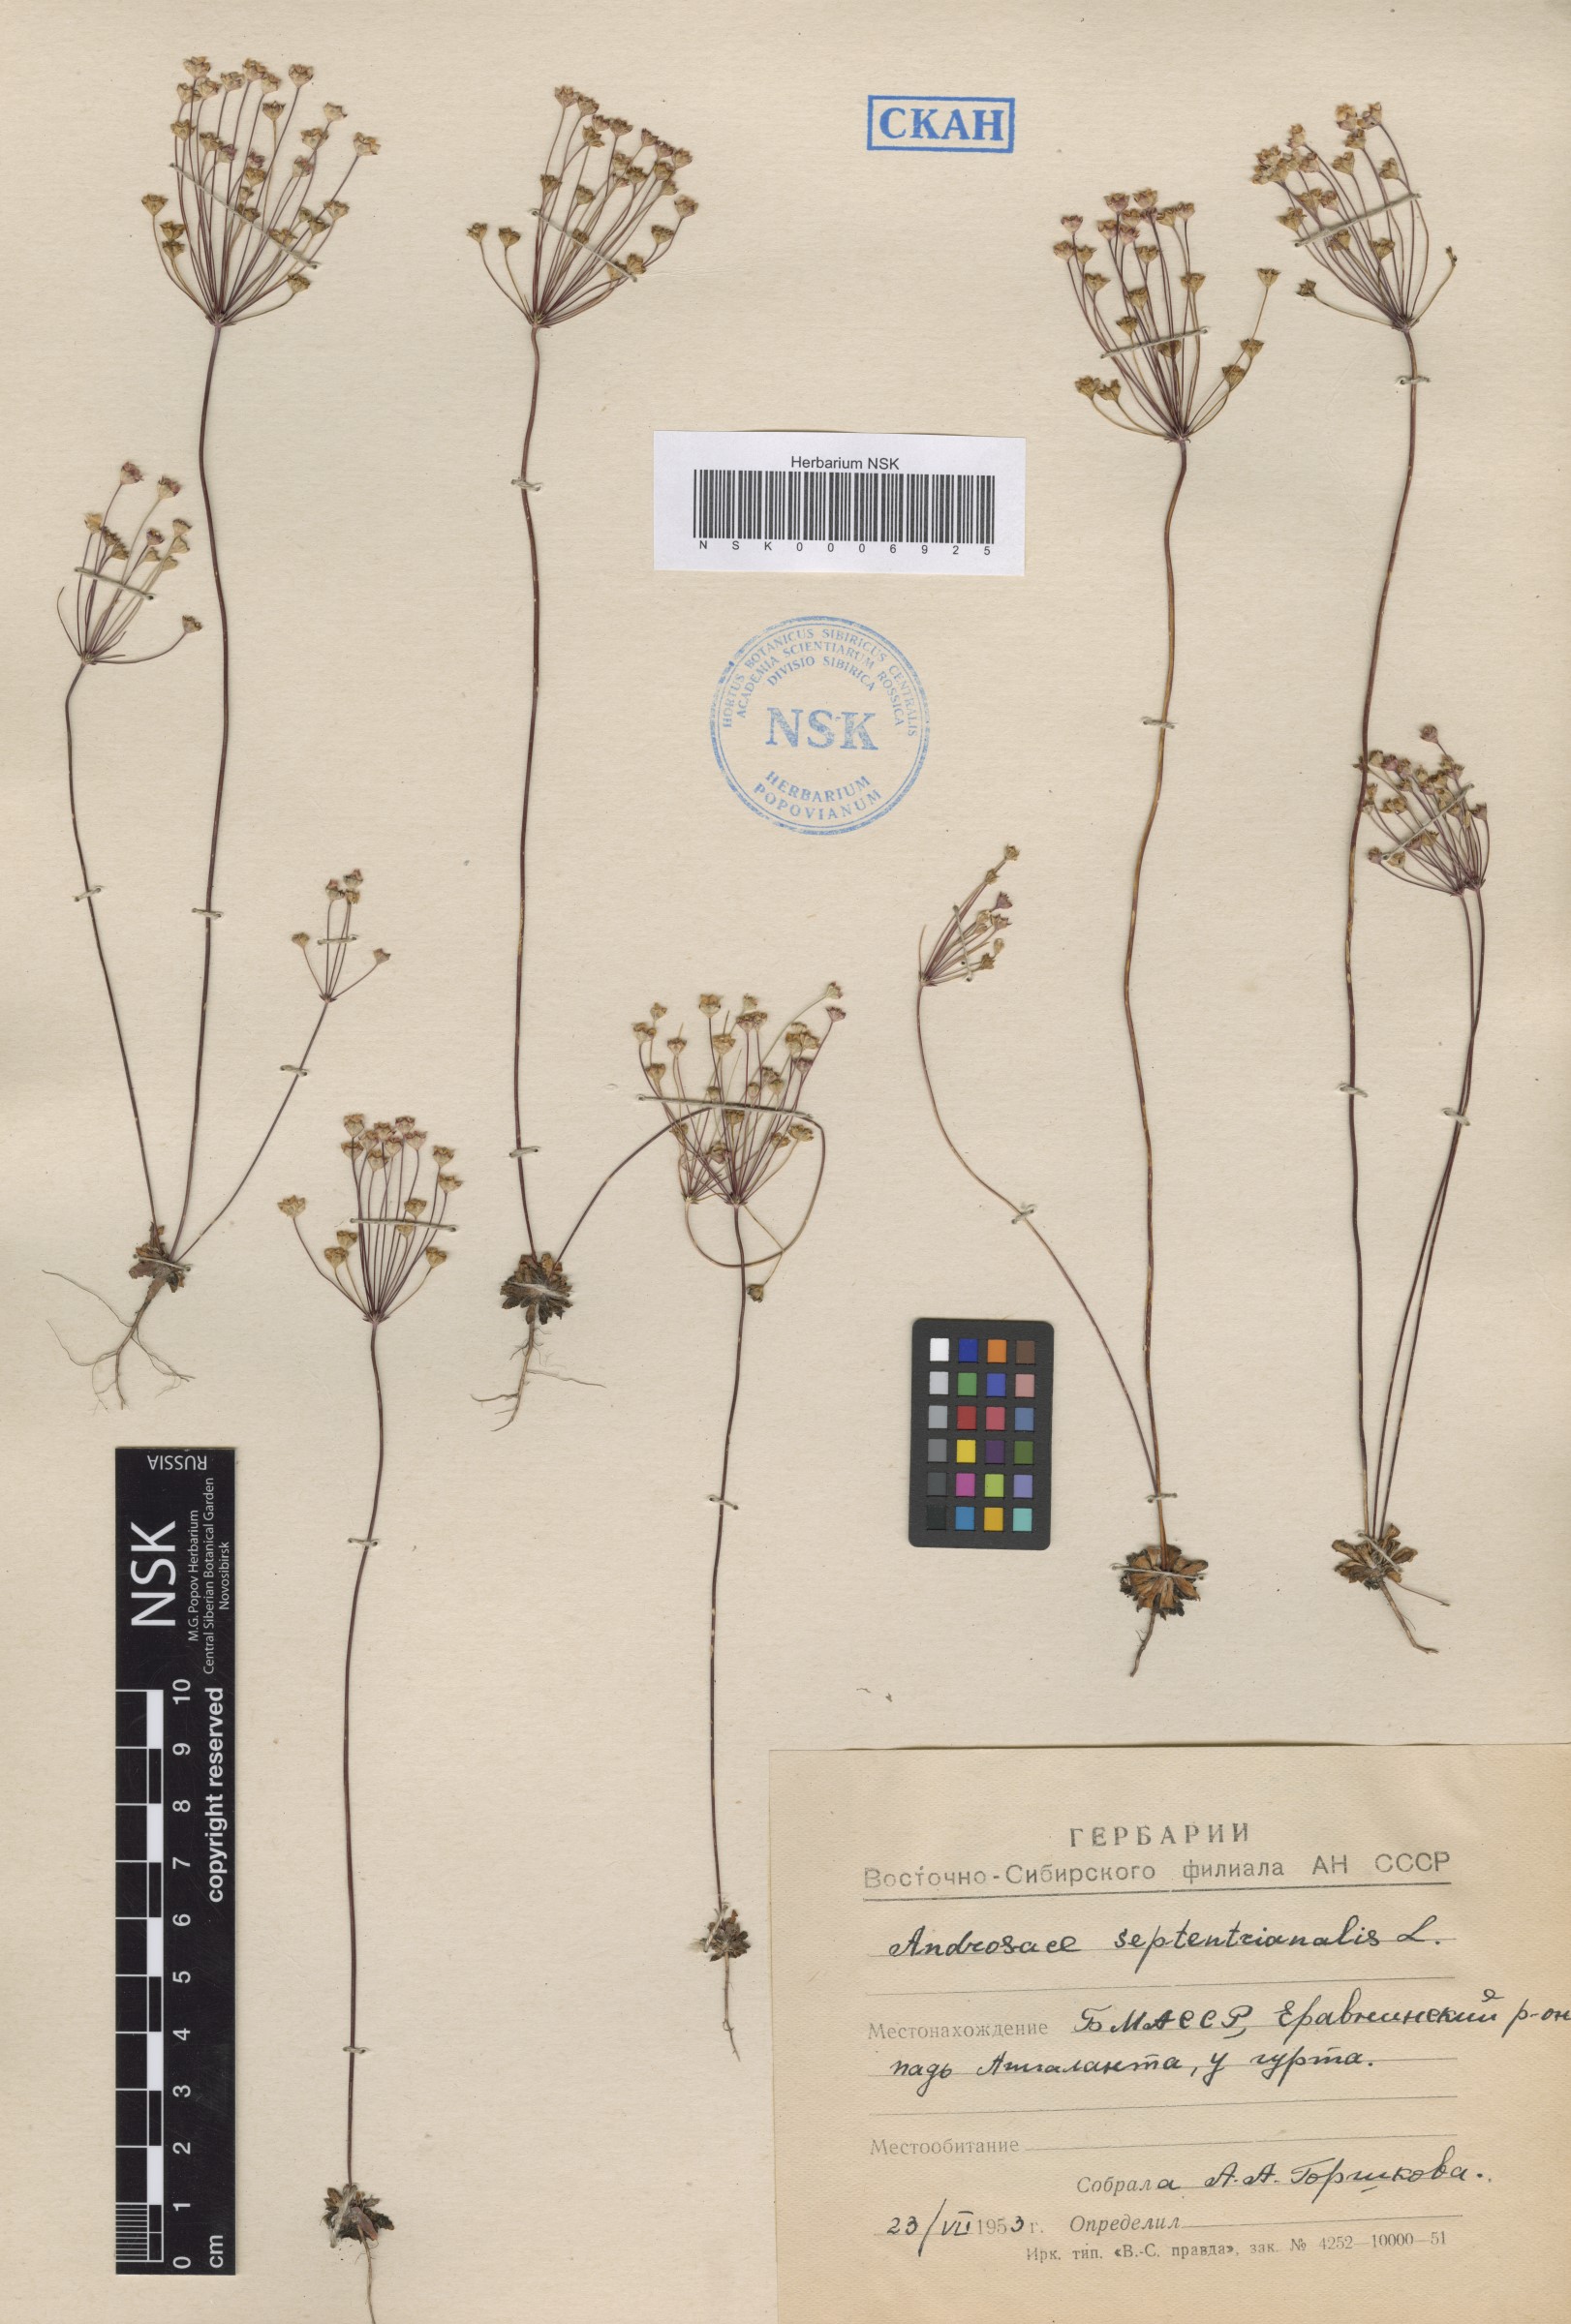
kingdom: Plantae
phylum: Tracheophyta
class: Magnoliopsida
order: Ericales
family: Primulaceae
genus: Androsace
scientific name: Androsace septentrionalis
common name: Hairy northern fairy-candelabra
